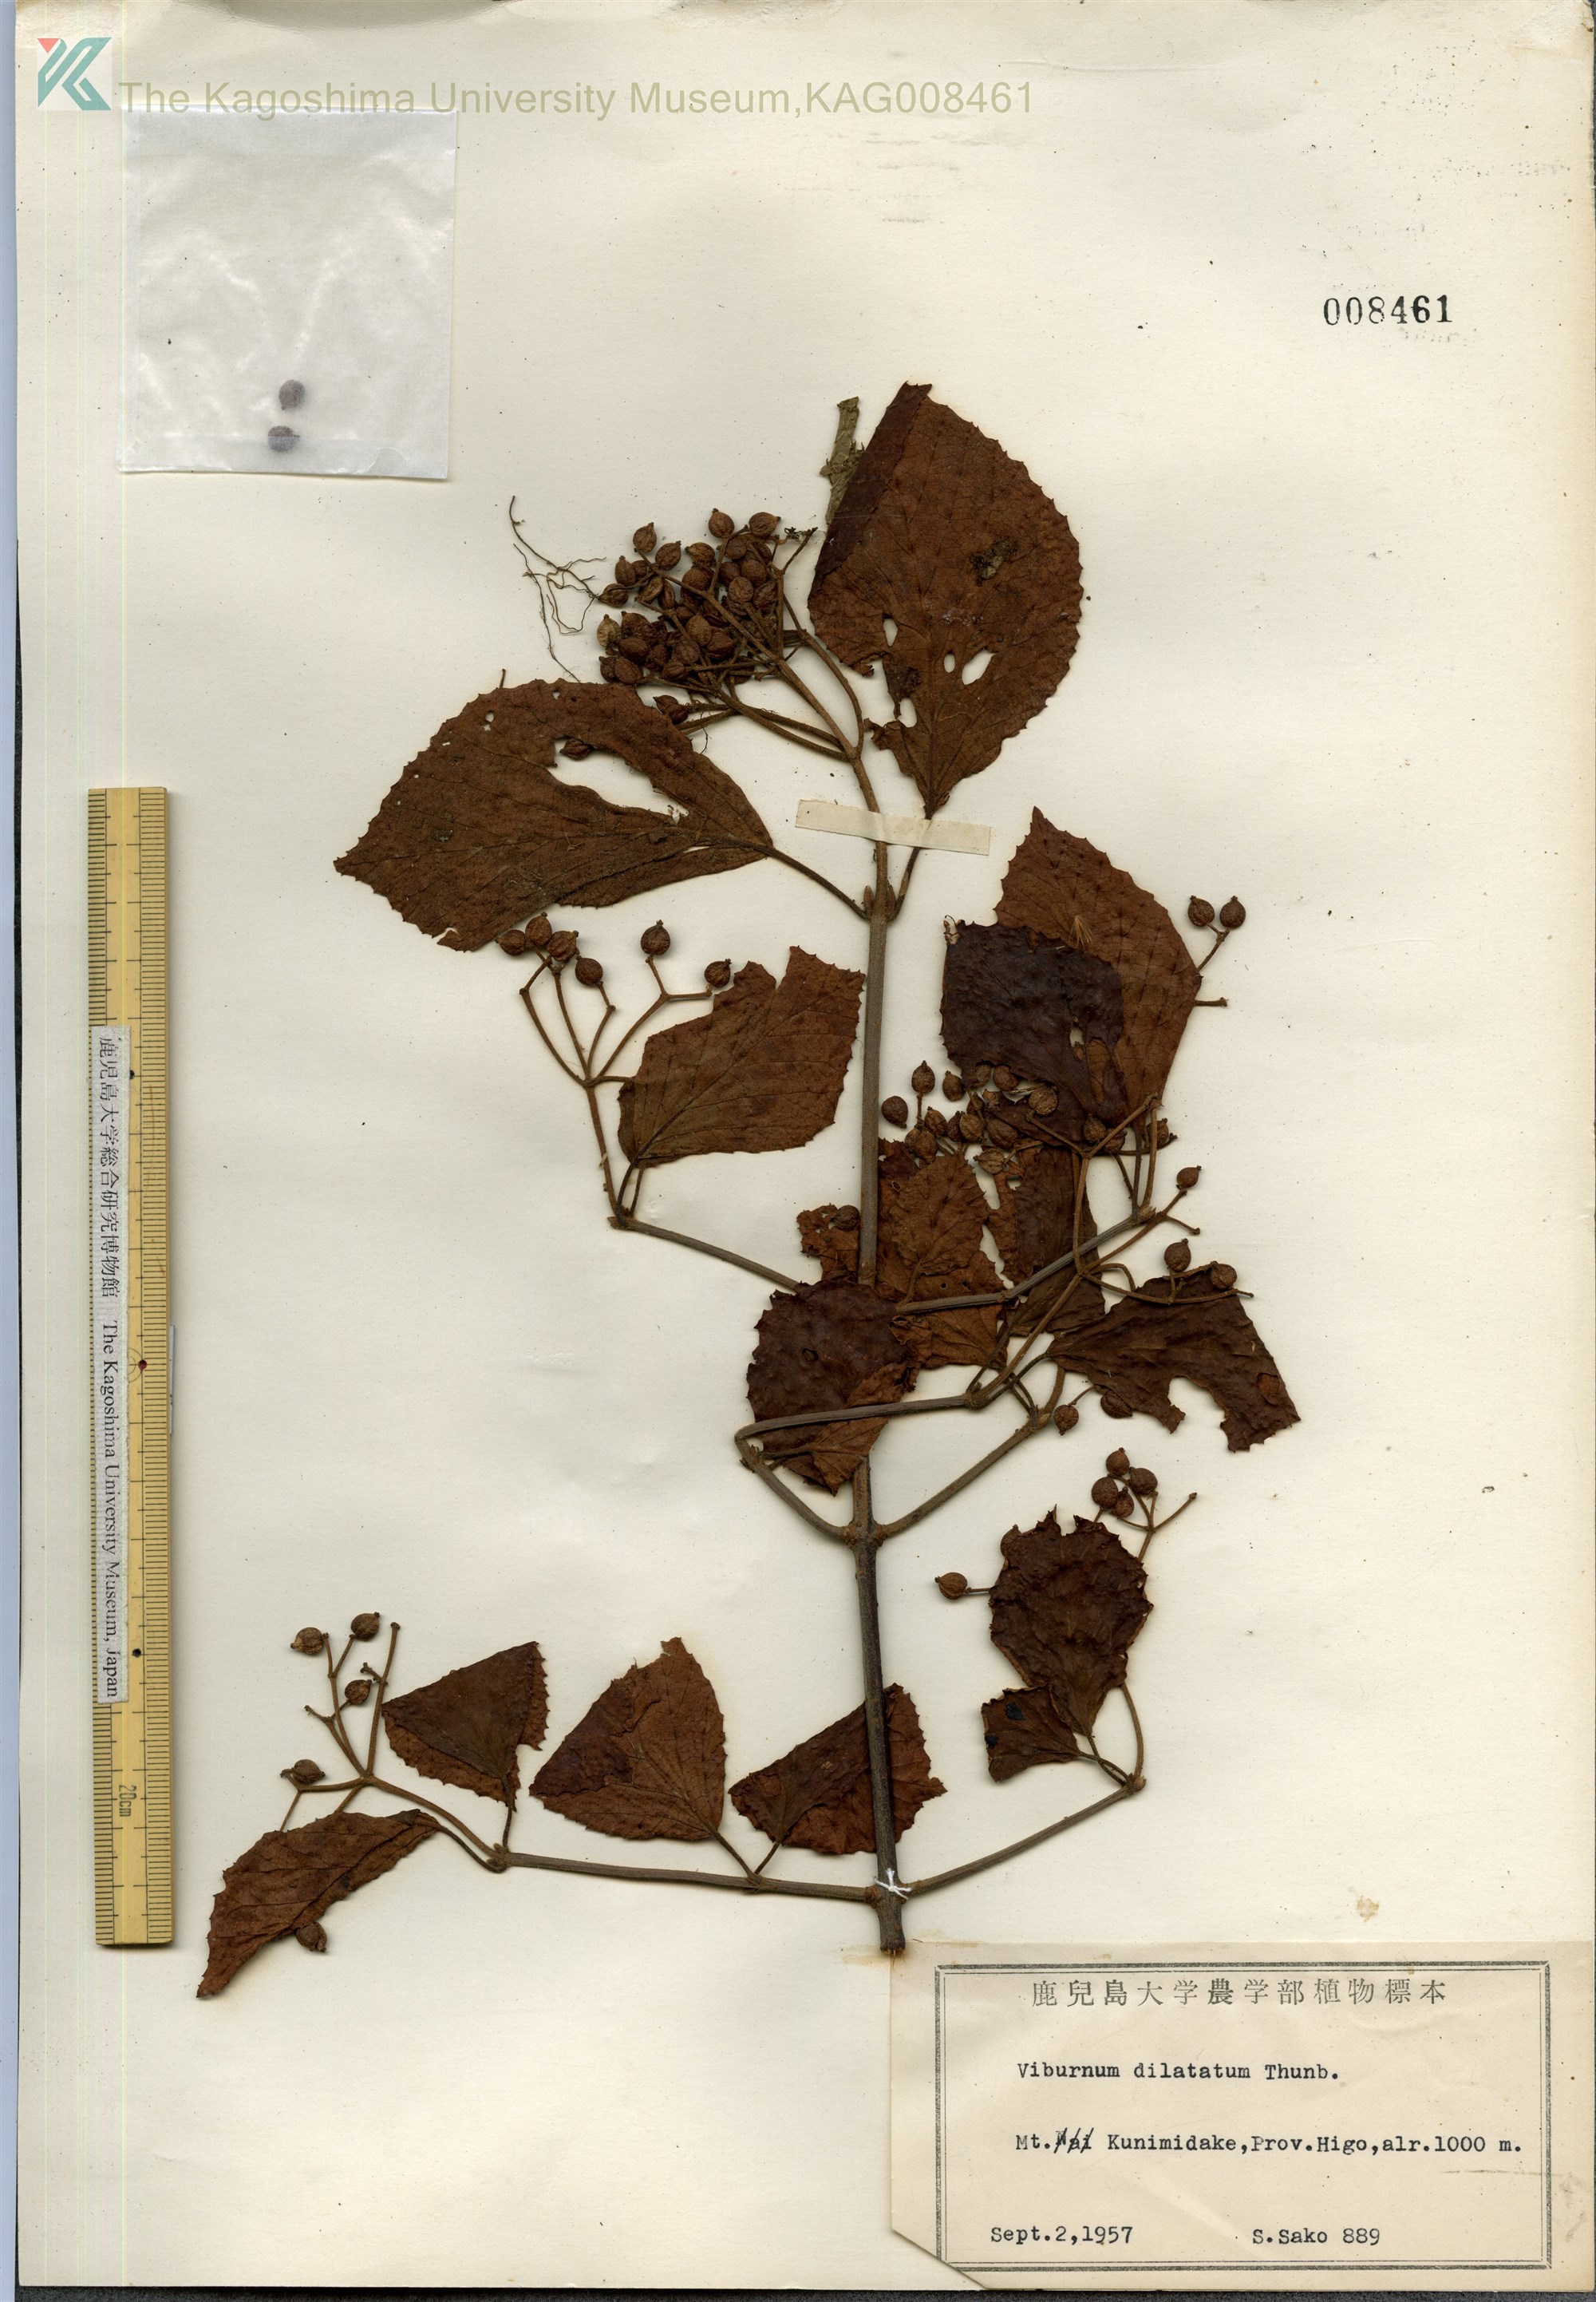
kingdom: Plantae
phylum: Tracheophyta
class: Magnoliopsida
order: Dipsacales
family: Viburnaceae
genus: Viburnum
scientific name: Viburnum dilatatum
